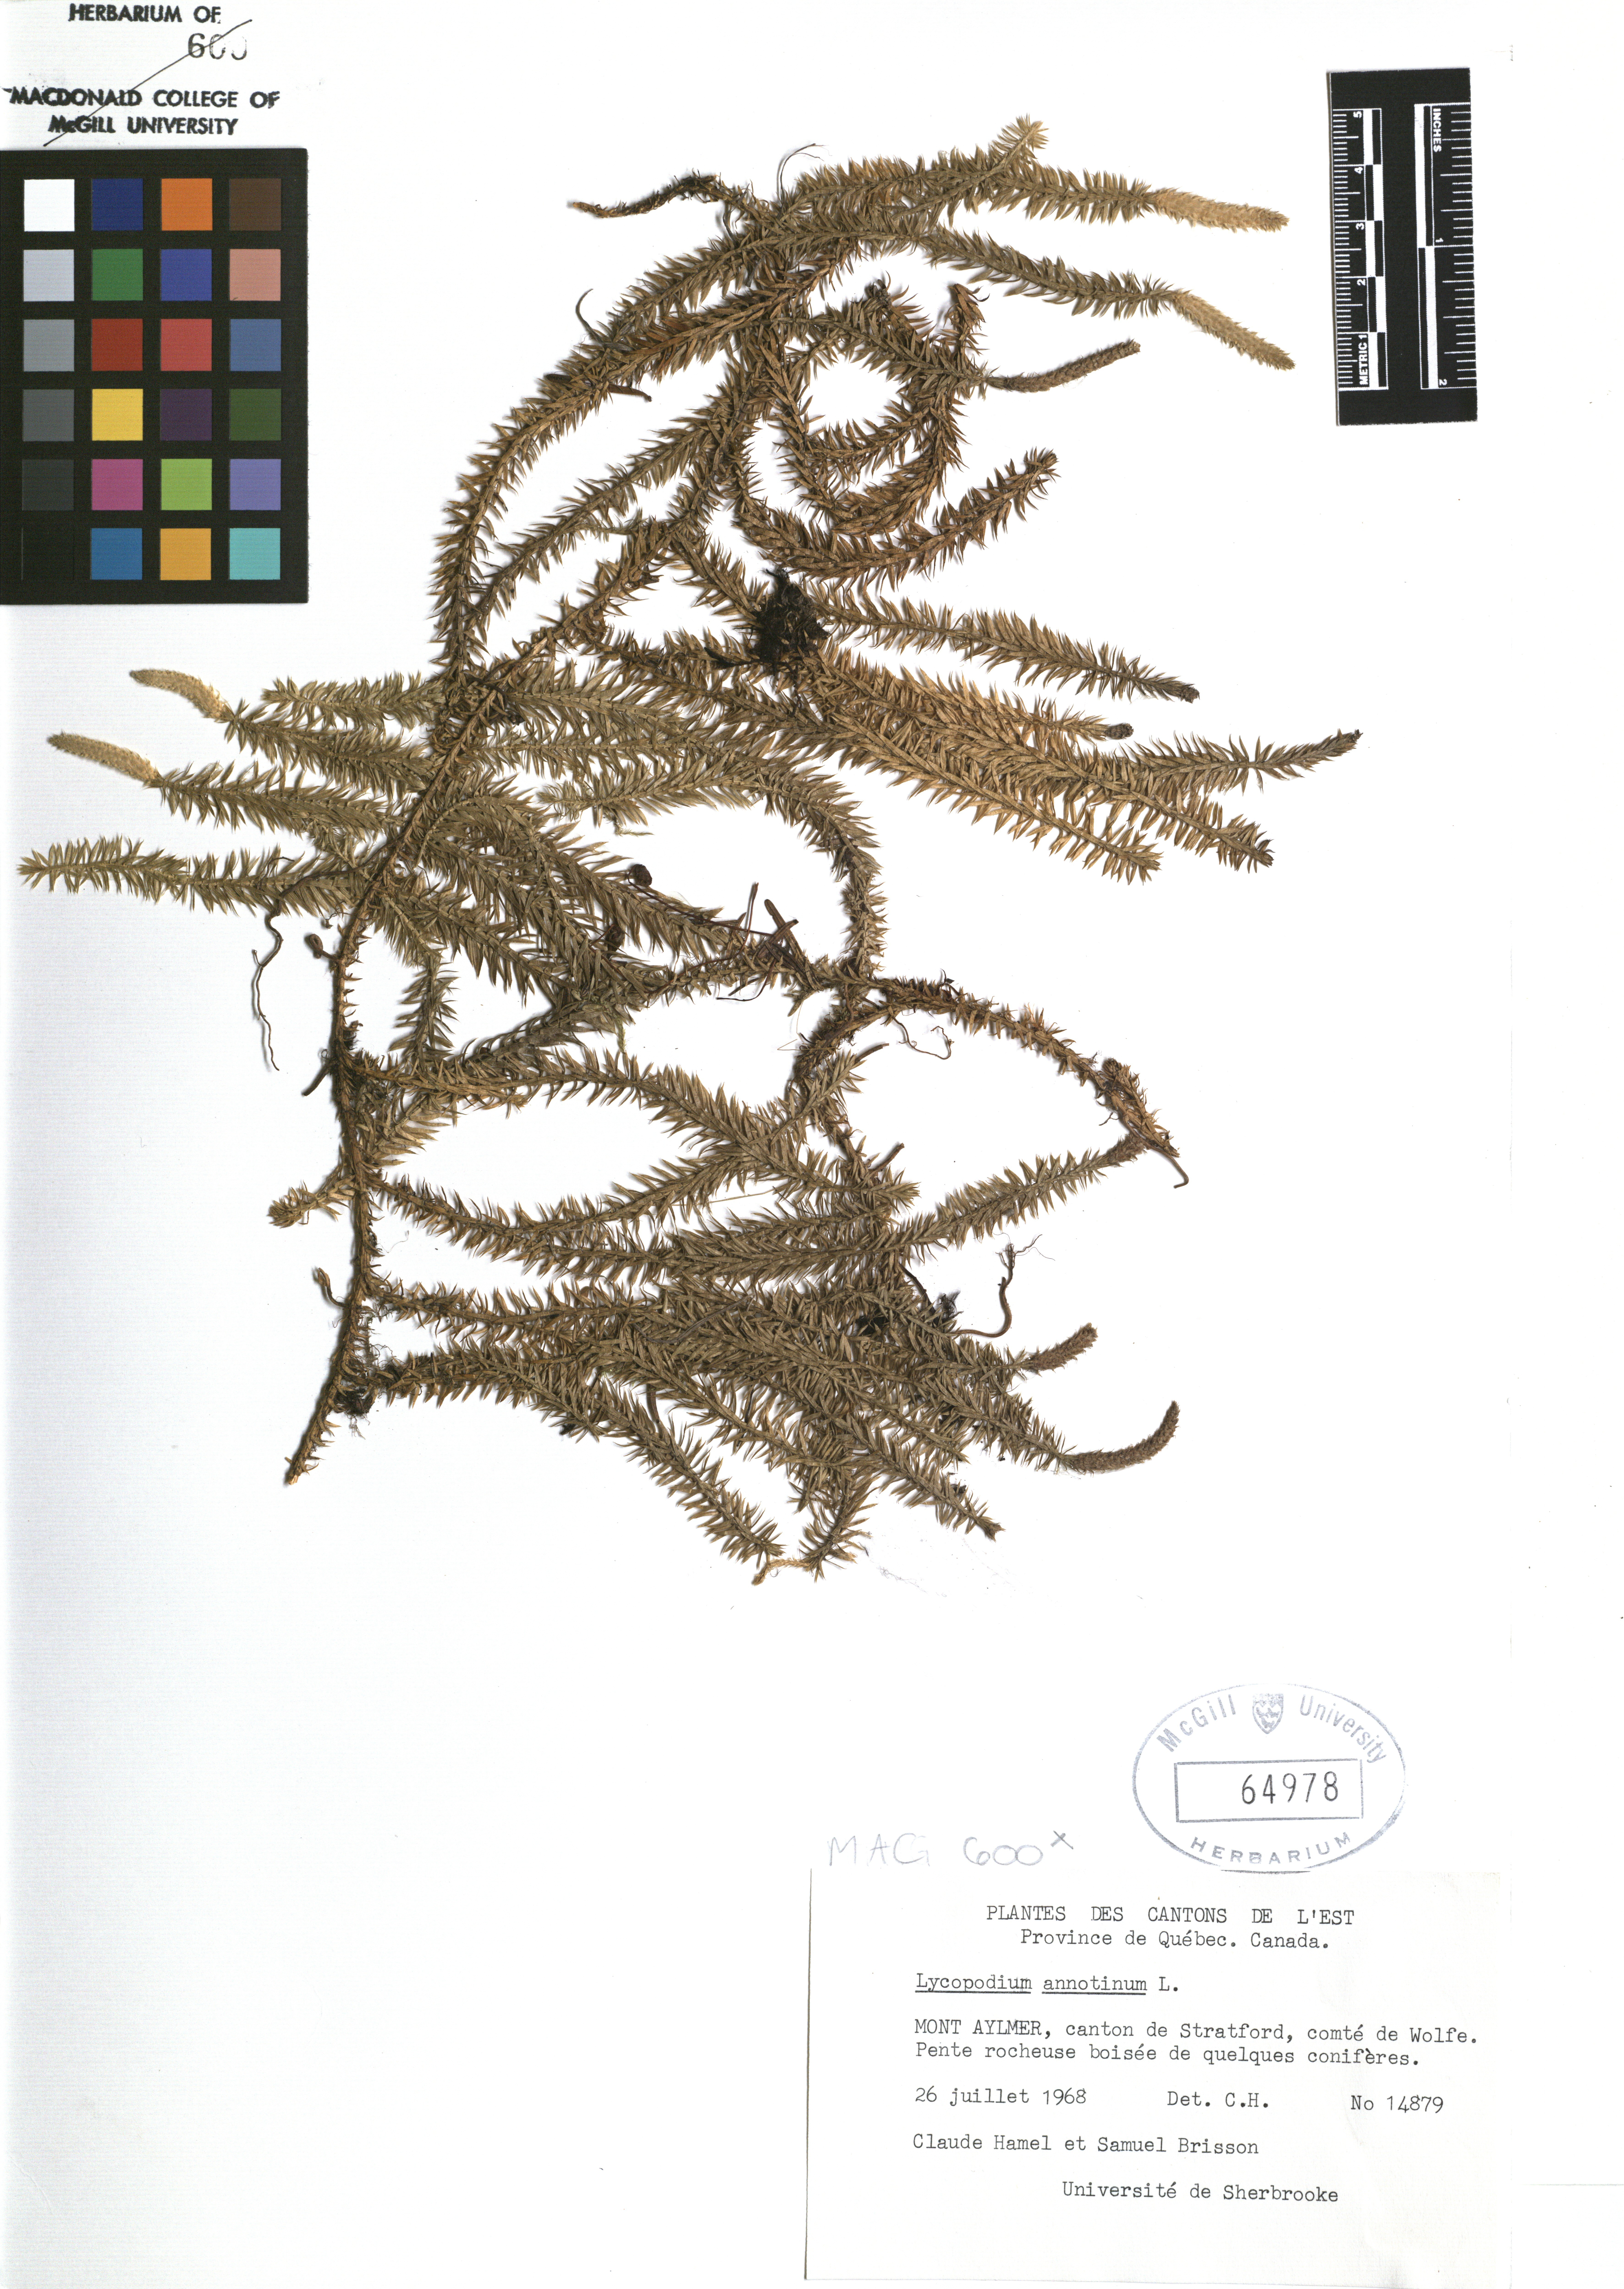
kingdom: Plantae
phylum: Tracheophyta
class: Lycopodiopsida
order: Lycopodiales
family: Lycopodiaceae
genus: Spinulum
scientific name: Spinulum annotinum
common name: Interrupted club-moss
